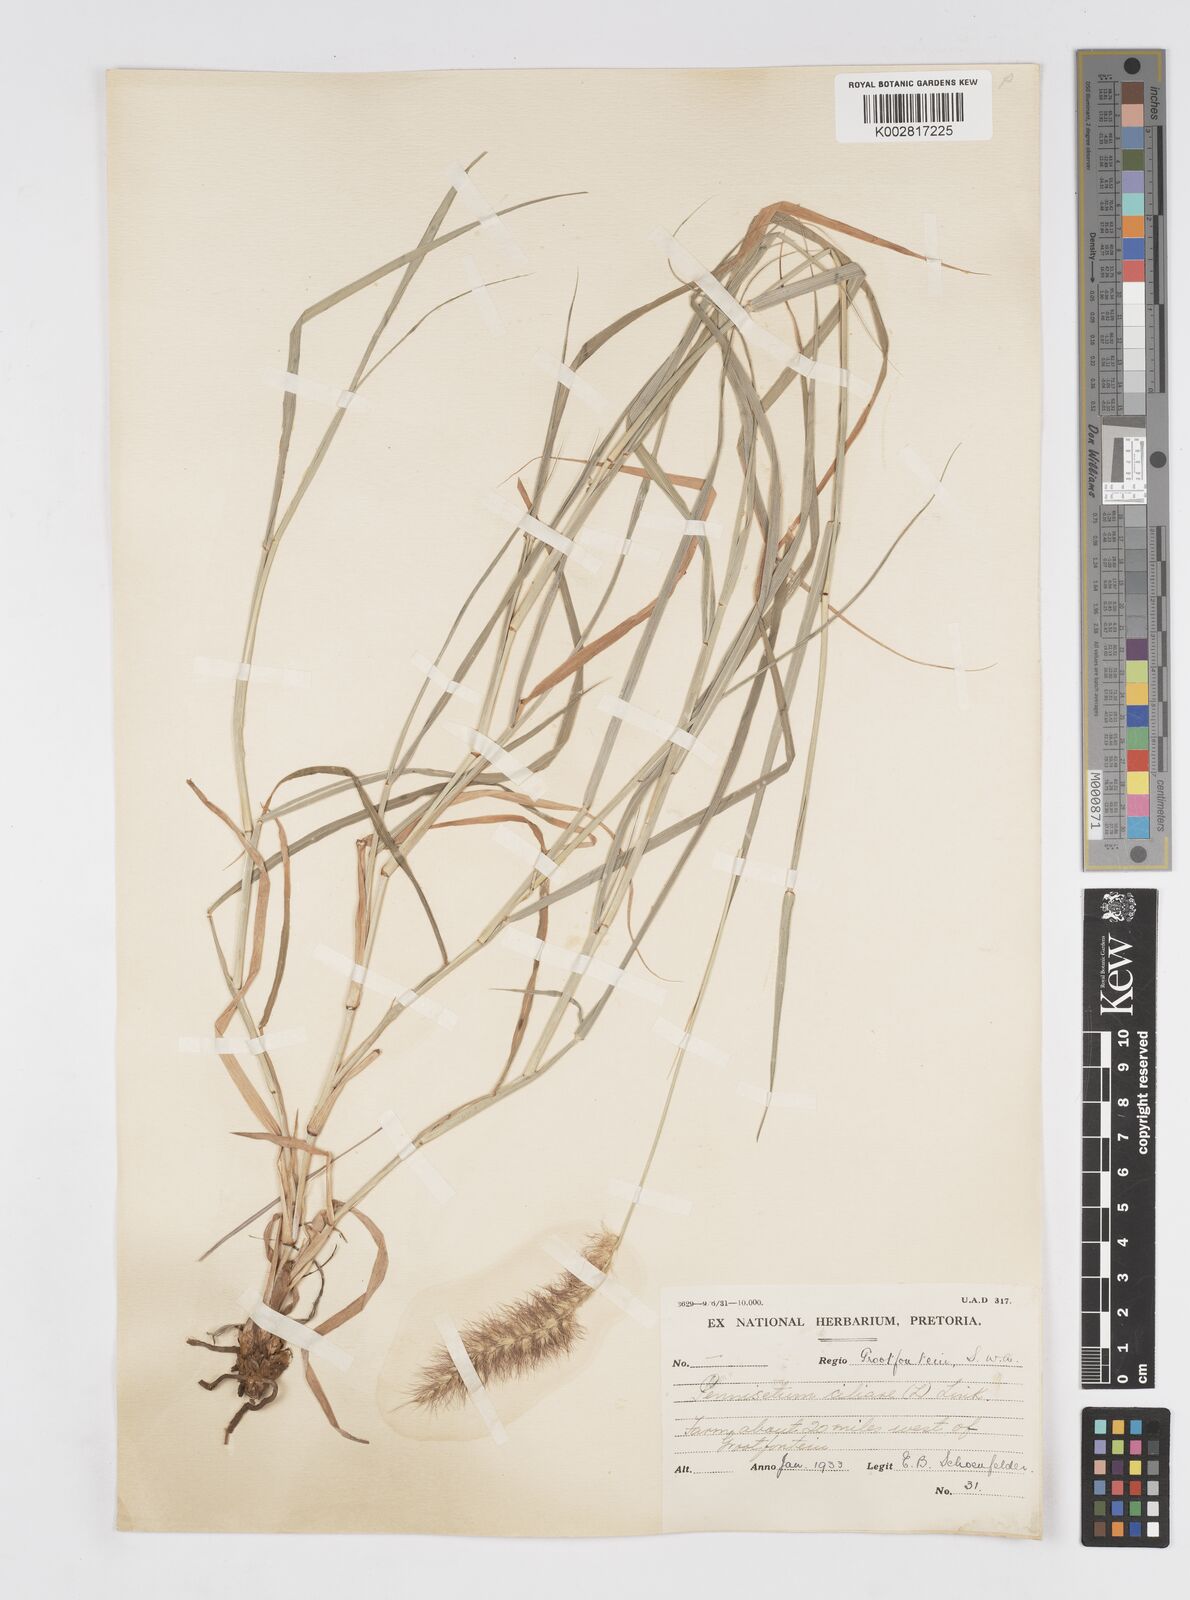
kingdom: Plantae
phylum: Tracheophyta
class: Liliopsida
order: Poales
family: Poaceae
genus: Cenchrus
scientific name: Cenchrus ciliaris
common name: Buffelgrass
